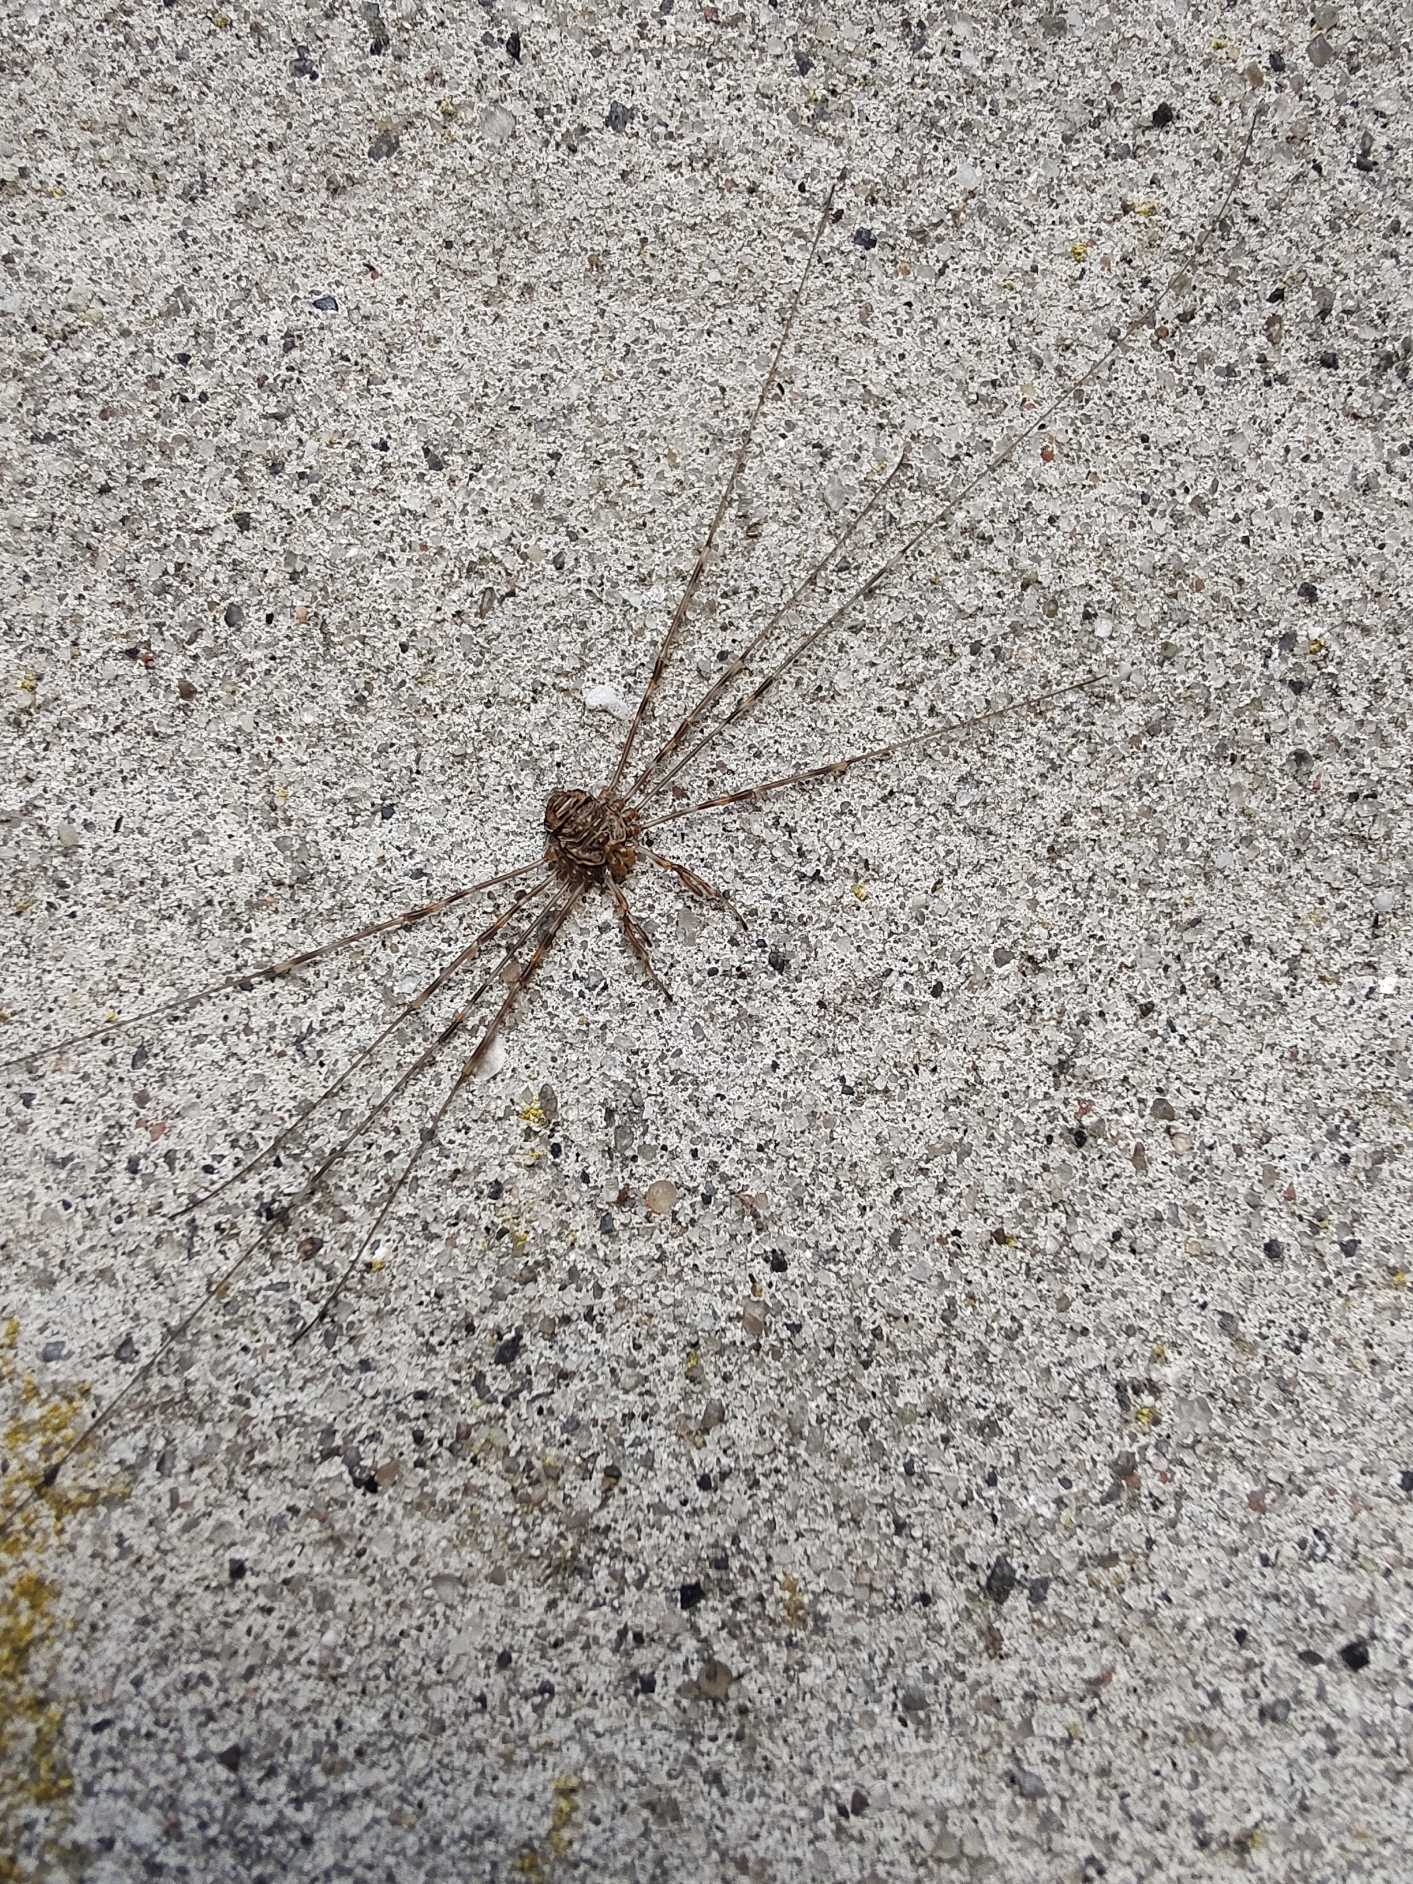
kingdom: Animalia
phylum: Arthropoda
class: Arachnida
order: Opiliones
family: Phalangiidae
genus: Dicranopalpus
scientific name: Dicranopalpus ramosus
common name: Gaffelmejer
